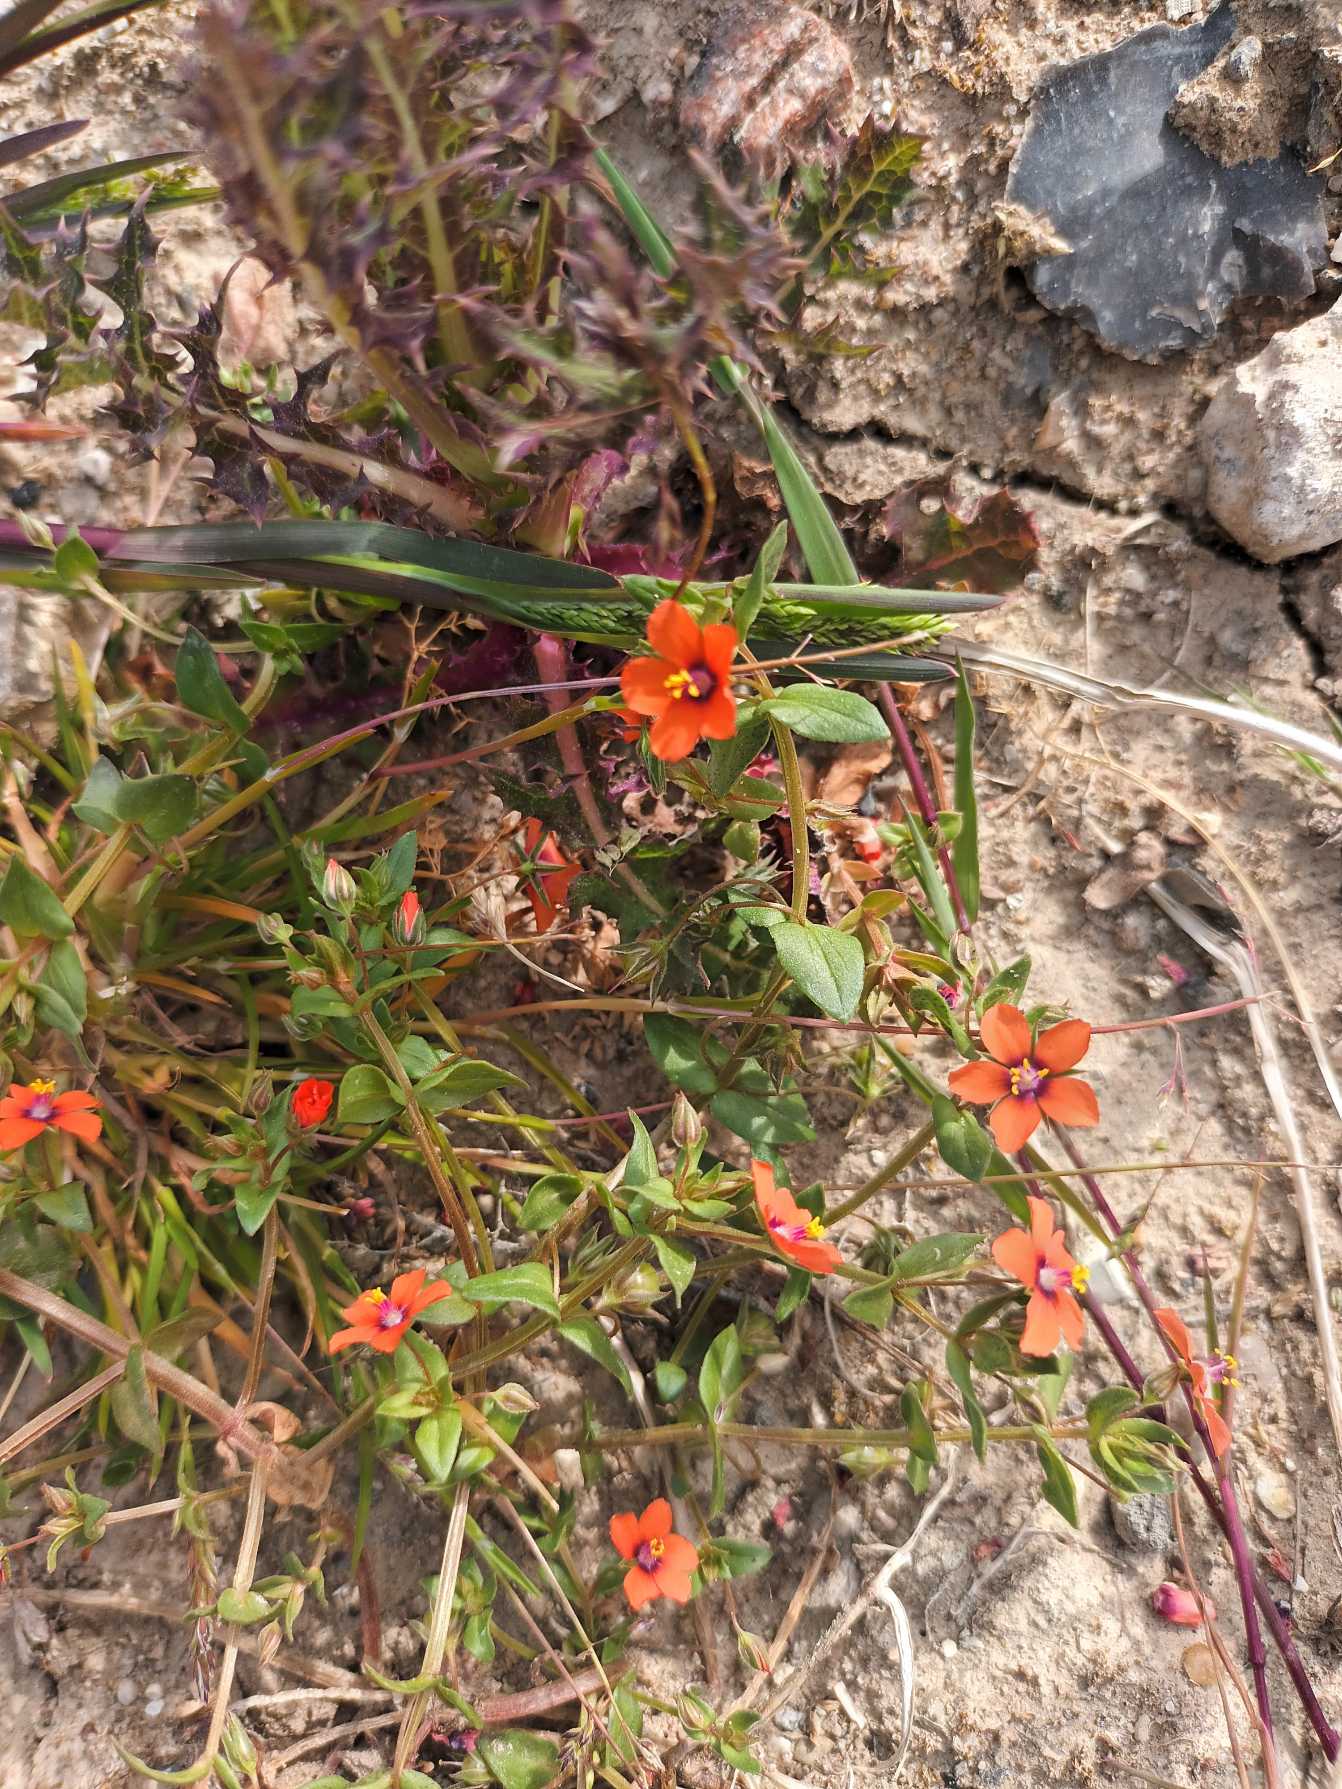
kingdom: Plantae
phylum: Tracheophyta
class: Magnoliopsida
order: Ericales
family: Primulaceae
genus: Lysimachia
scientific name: Lysimachia arvensis
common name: Rød arve
